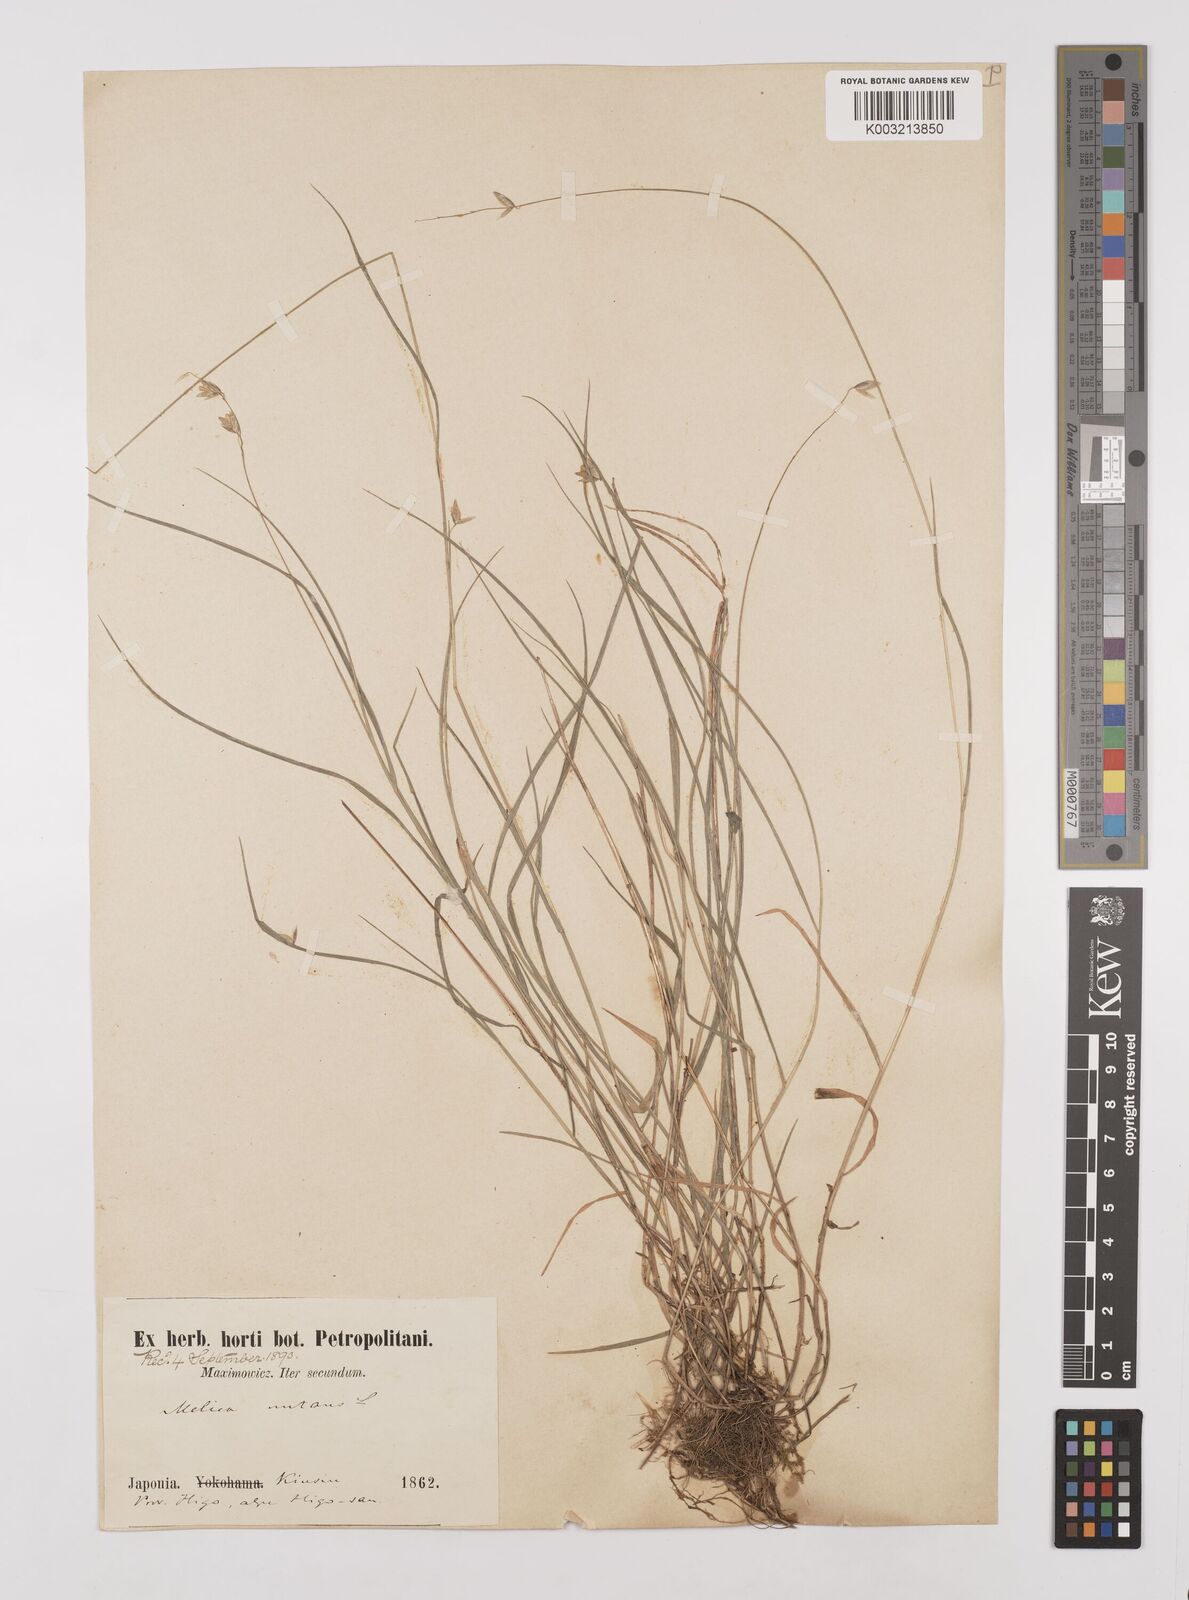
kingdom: Plantae
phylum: Tracheophyta
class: Liliopsida
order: Poales
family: Poaceae
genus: Melica
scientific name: Melica nutans
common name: Mountain melick
